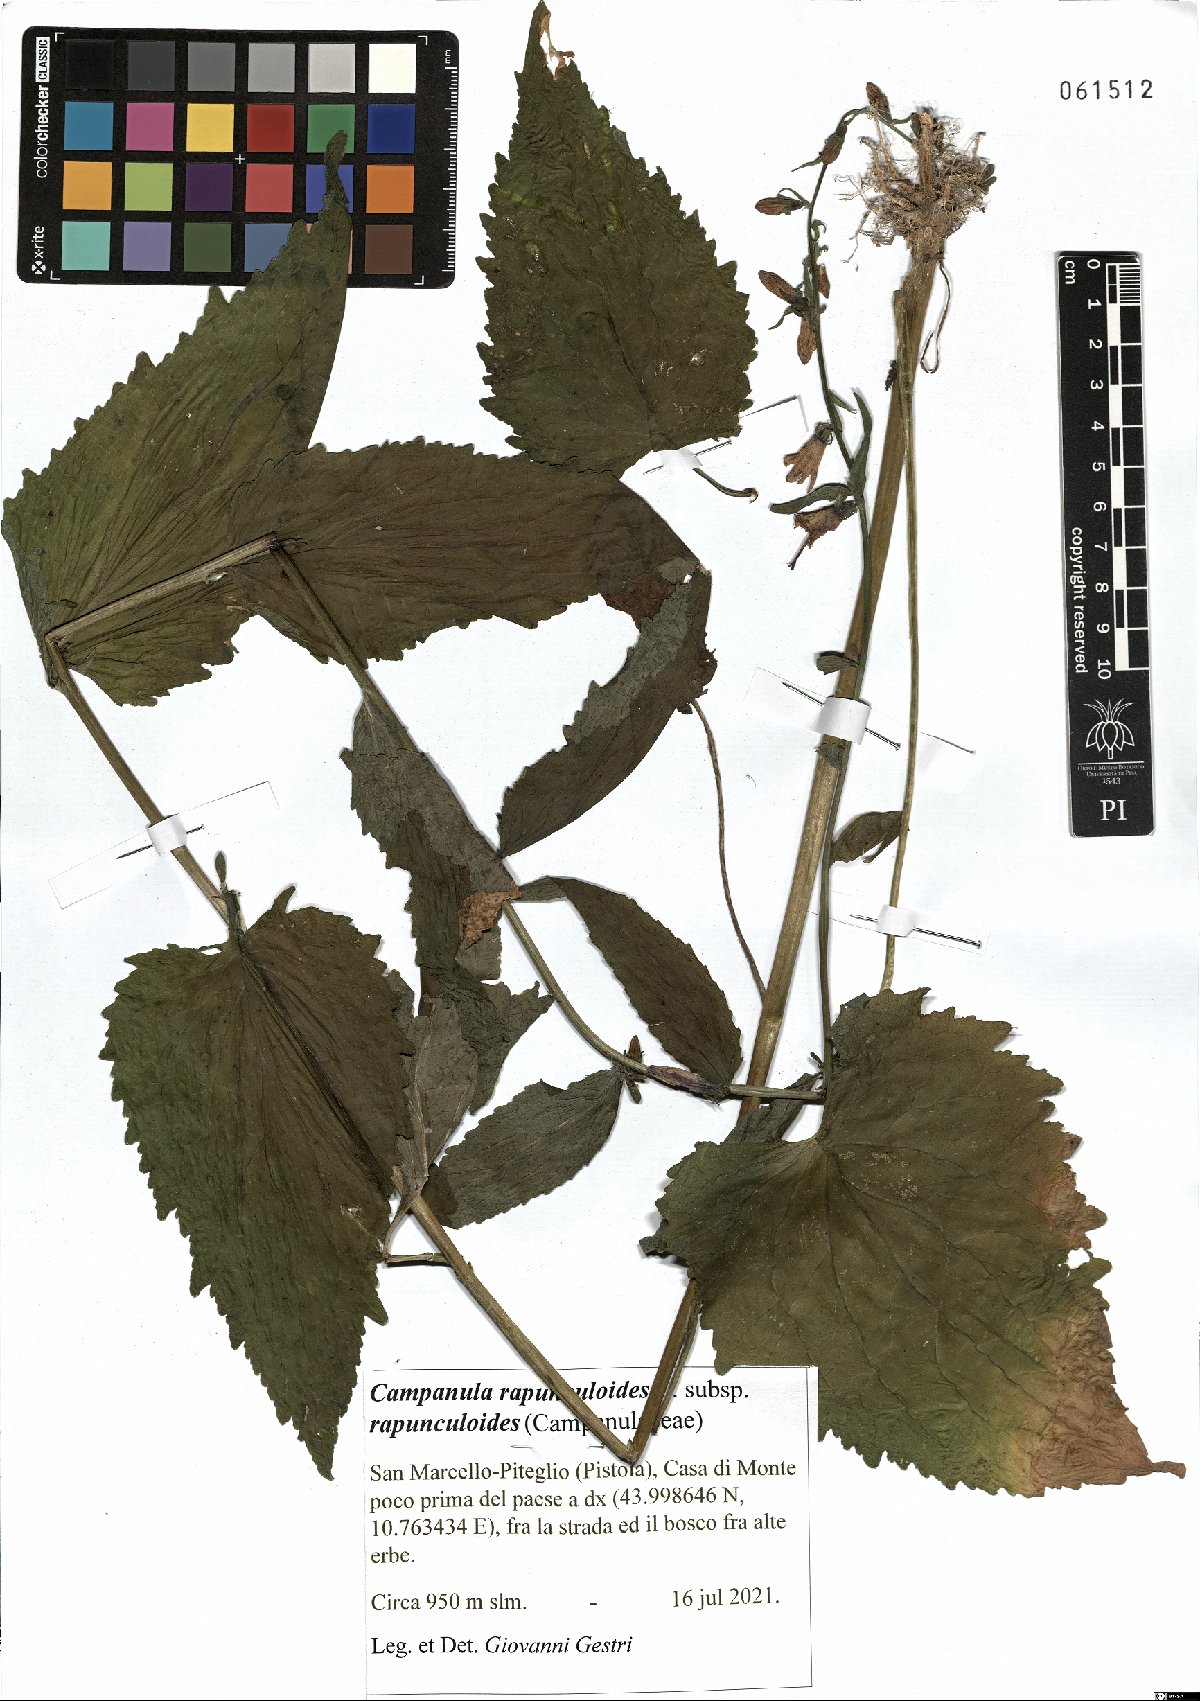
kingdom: Plantae
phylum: Tracheophyta
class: Magnoliopsida
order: Asterales
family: Campanulaceae
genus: Campanula
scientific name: Campanula rapunculoides
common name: Creeping bellflower
